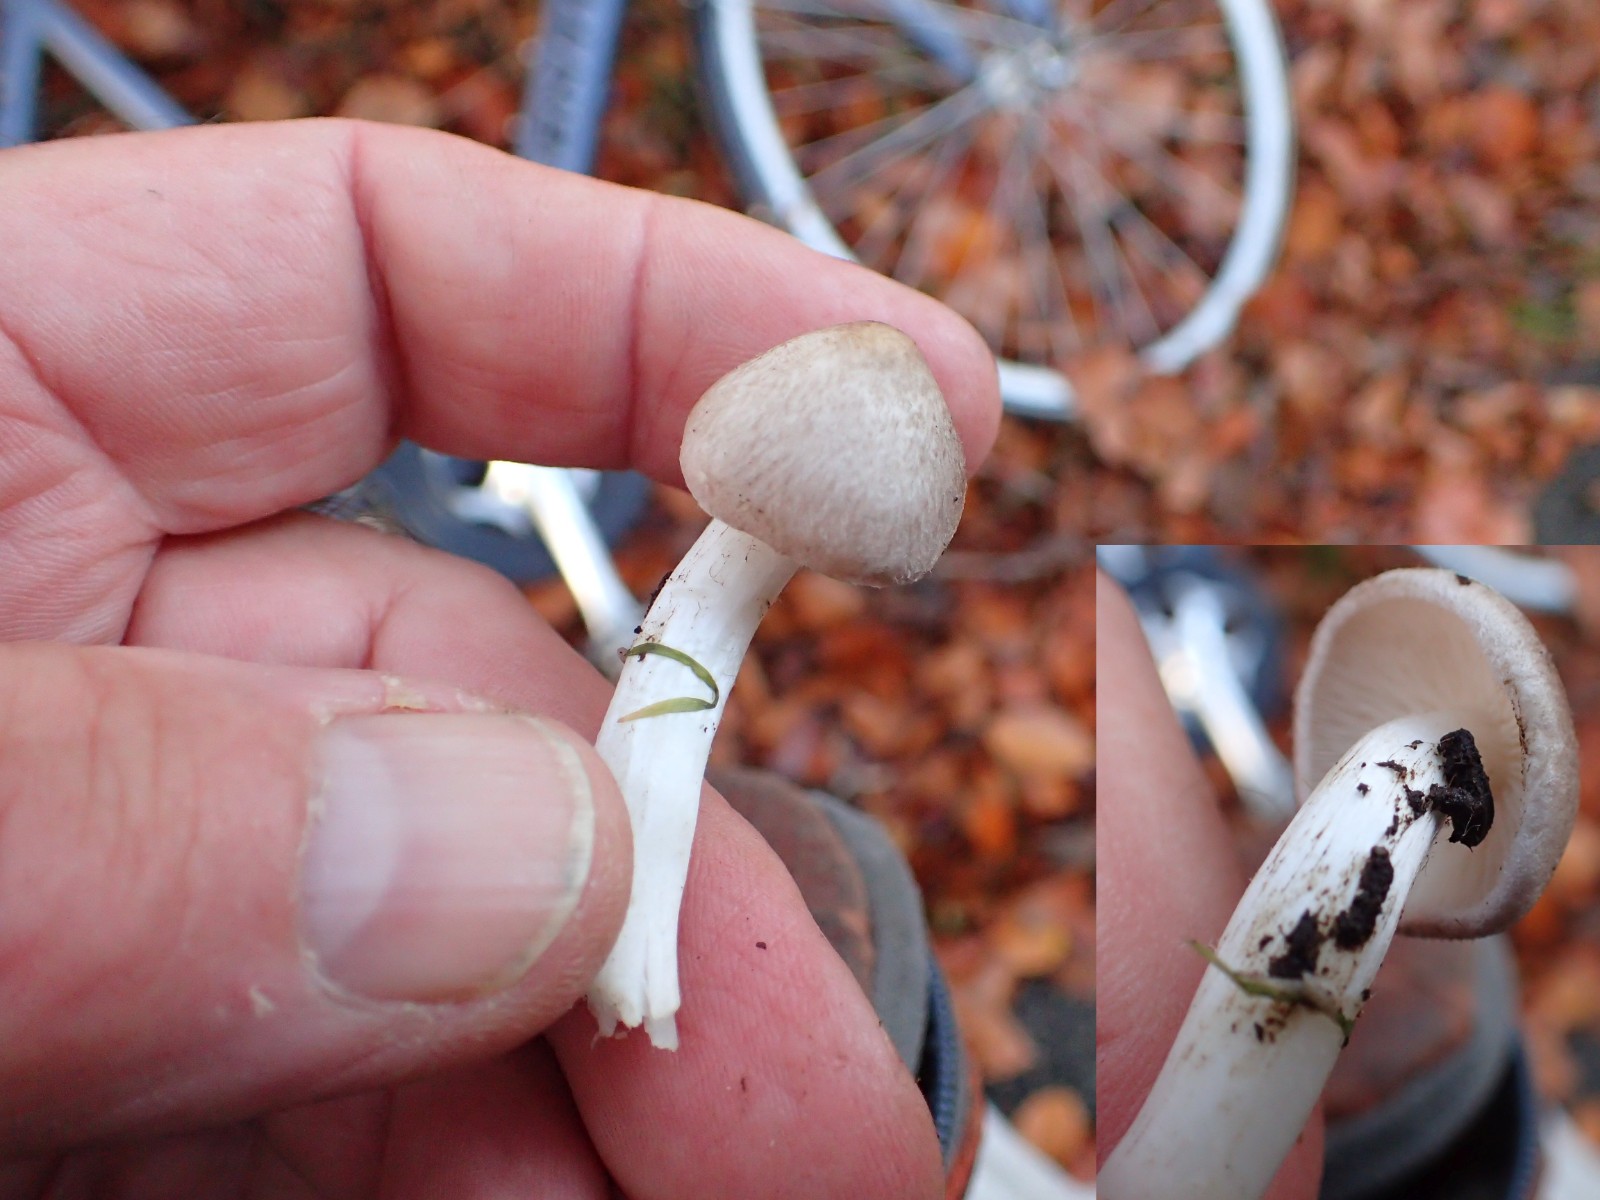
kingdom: Fungi
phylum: Basidiomycota
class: Agaricomycetes
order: Agaricales
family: Tricholomataceae
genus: Tricholoma
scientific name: Tricholoma
